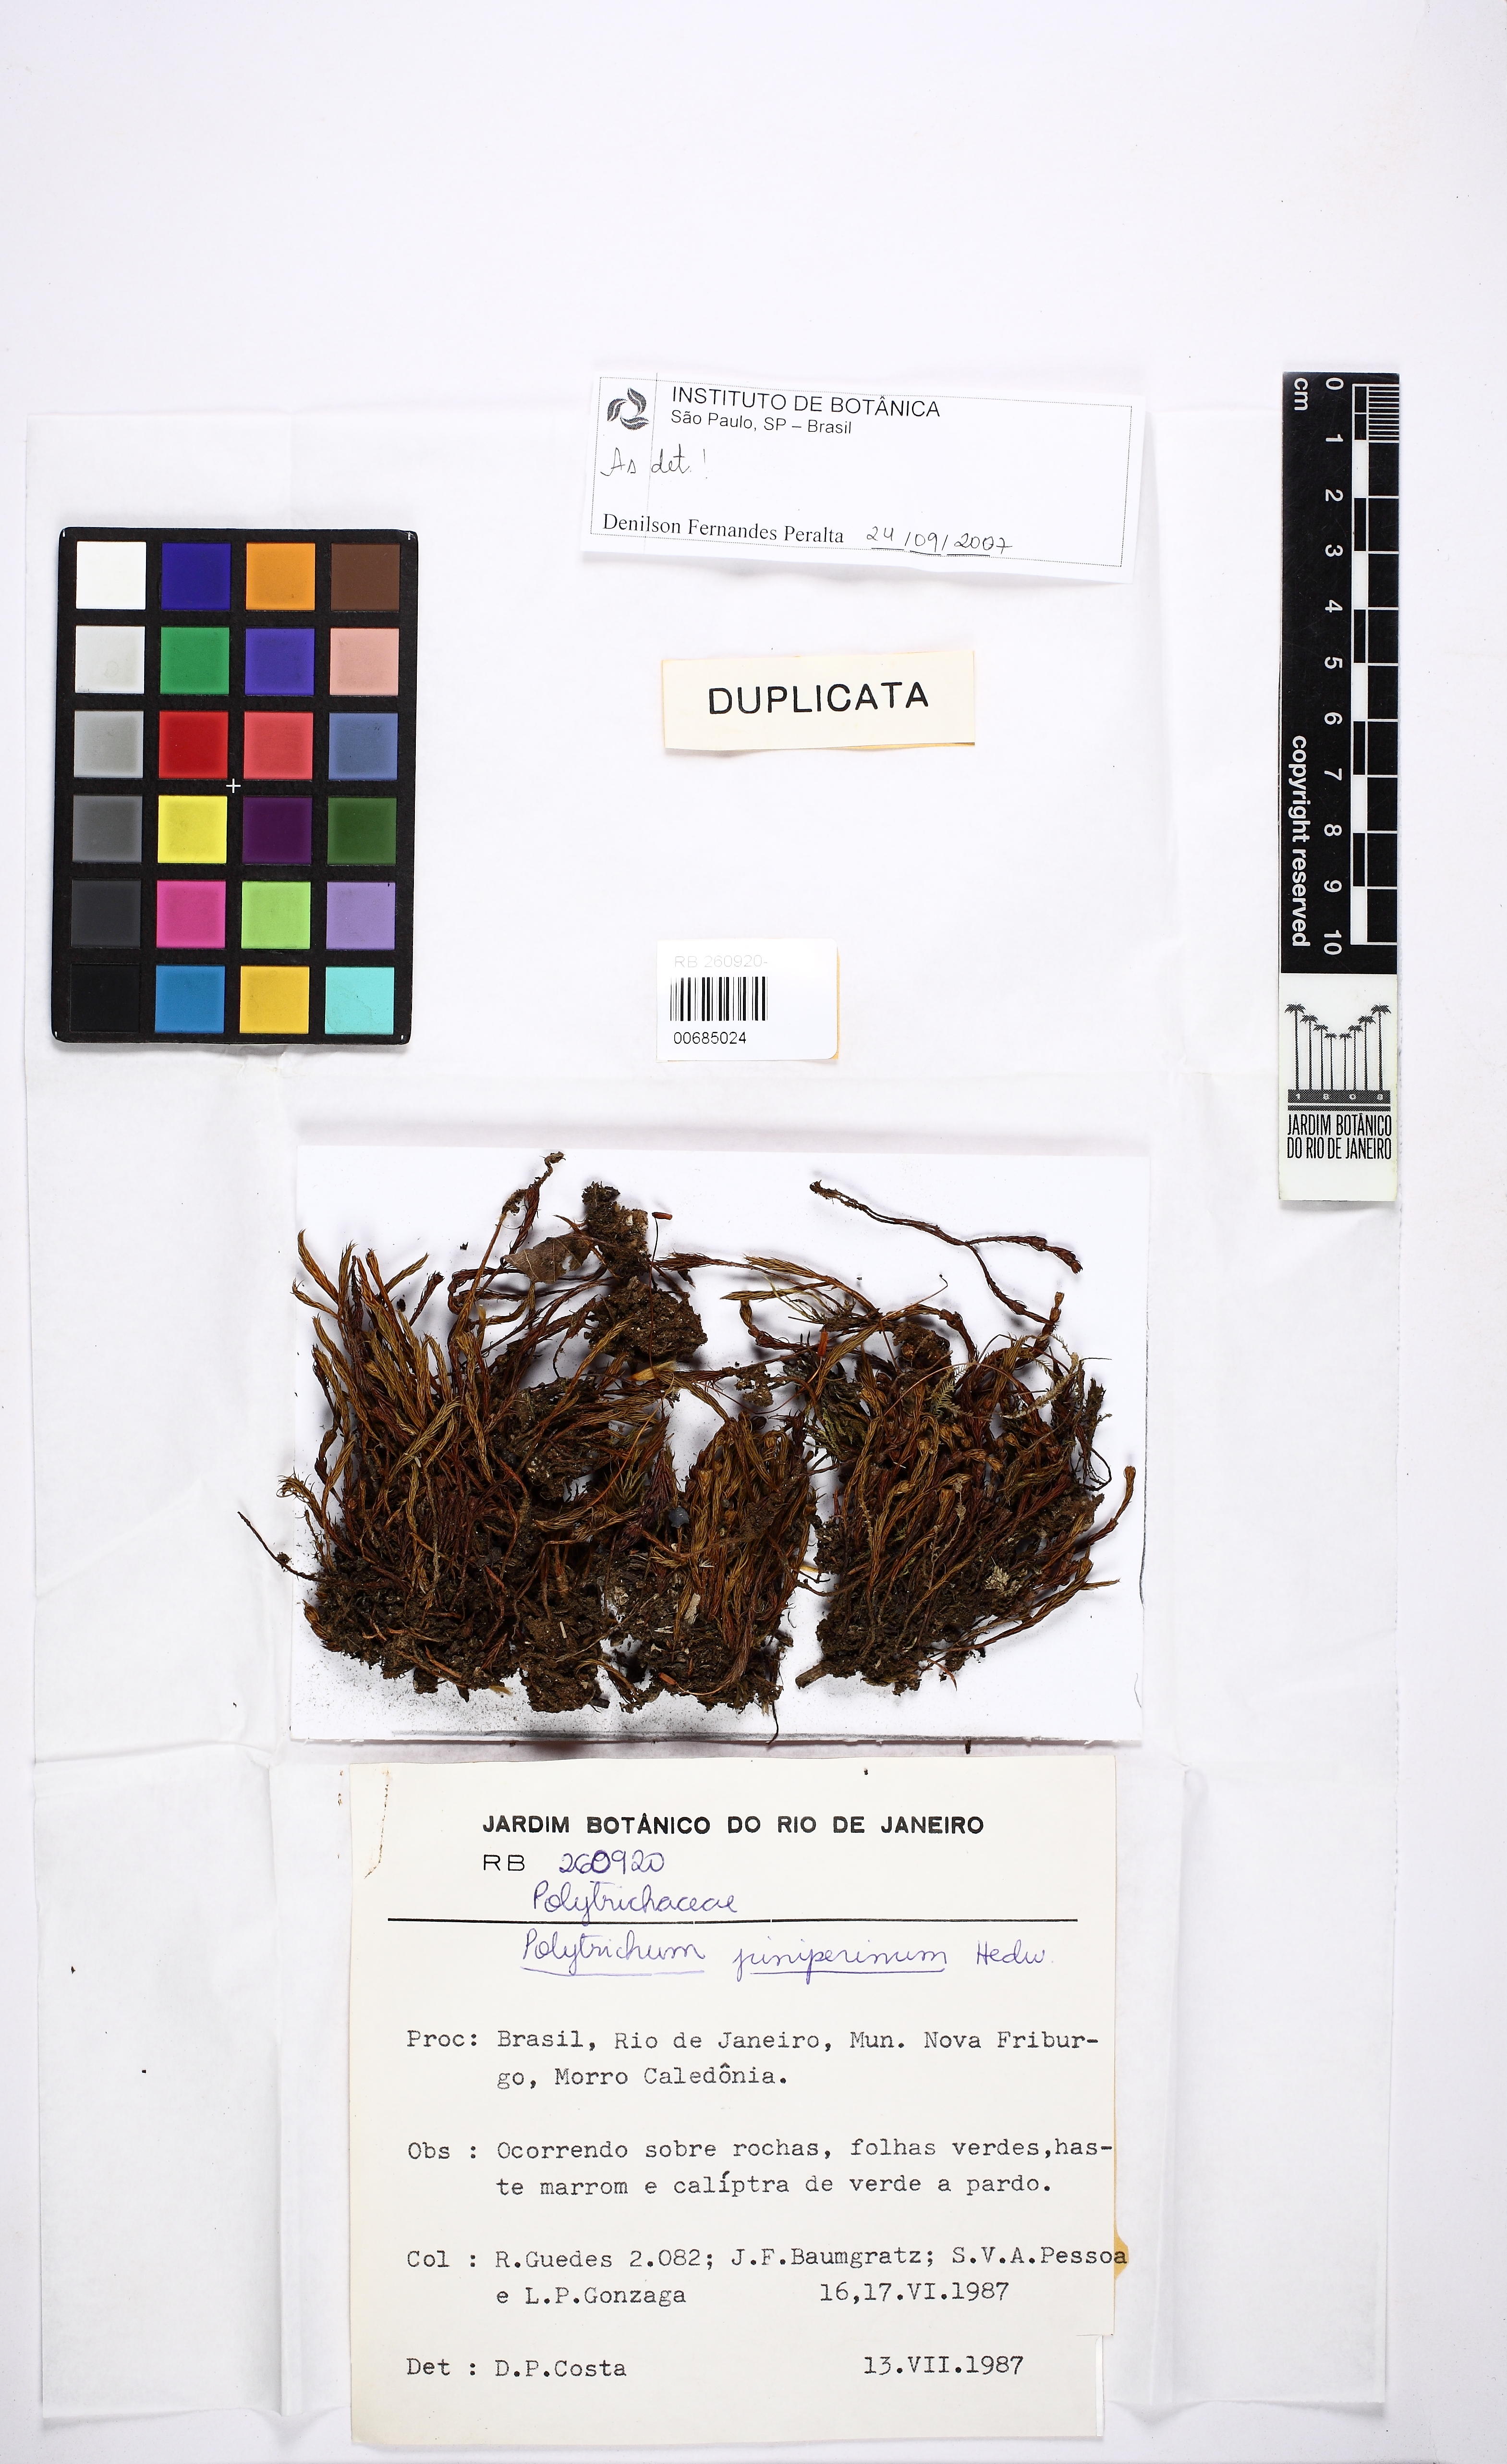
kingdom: Plantae
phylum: Bryophyta
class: Polytrichopsida
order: Polytrichales
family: Polytrichaceae
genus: Polytrichum
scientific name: Polytrichum juniperinum
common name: Juniper haircap moss
